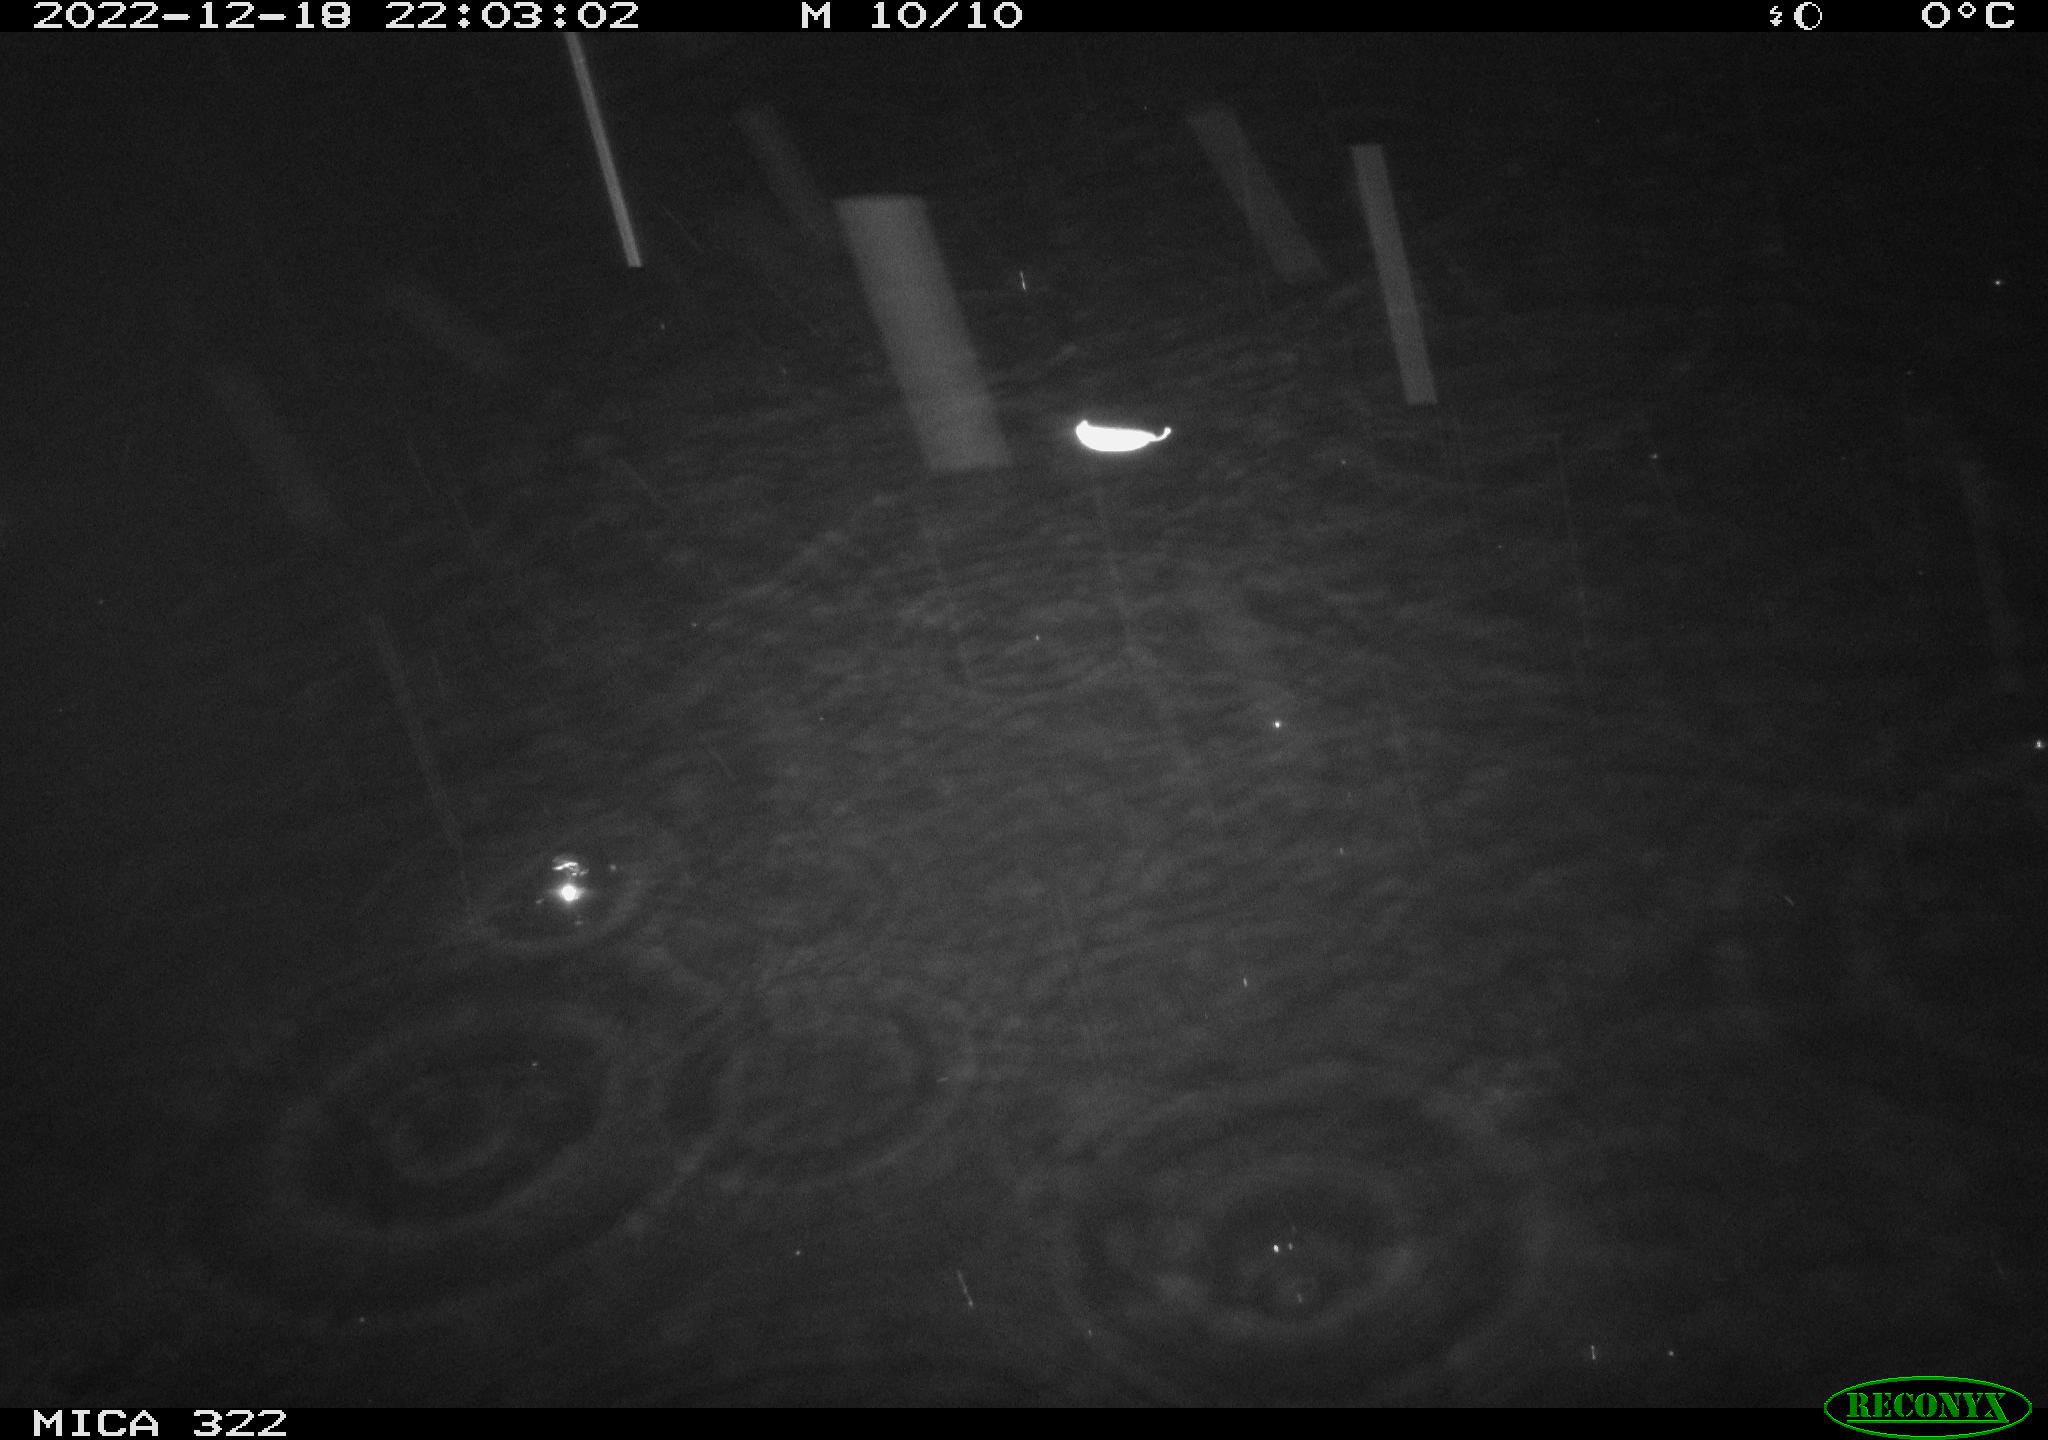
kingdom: Animalia
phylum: Chordata
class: Aves
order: Gruiformes
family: Rallidae
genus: Gallinula
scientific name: Gallinula chloropus
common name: Common moorhen
